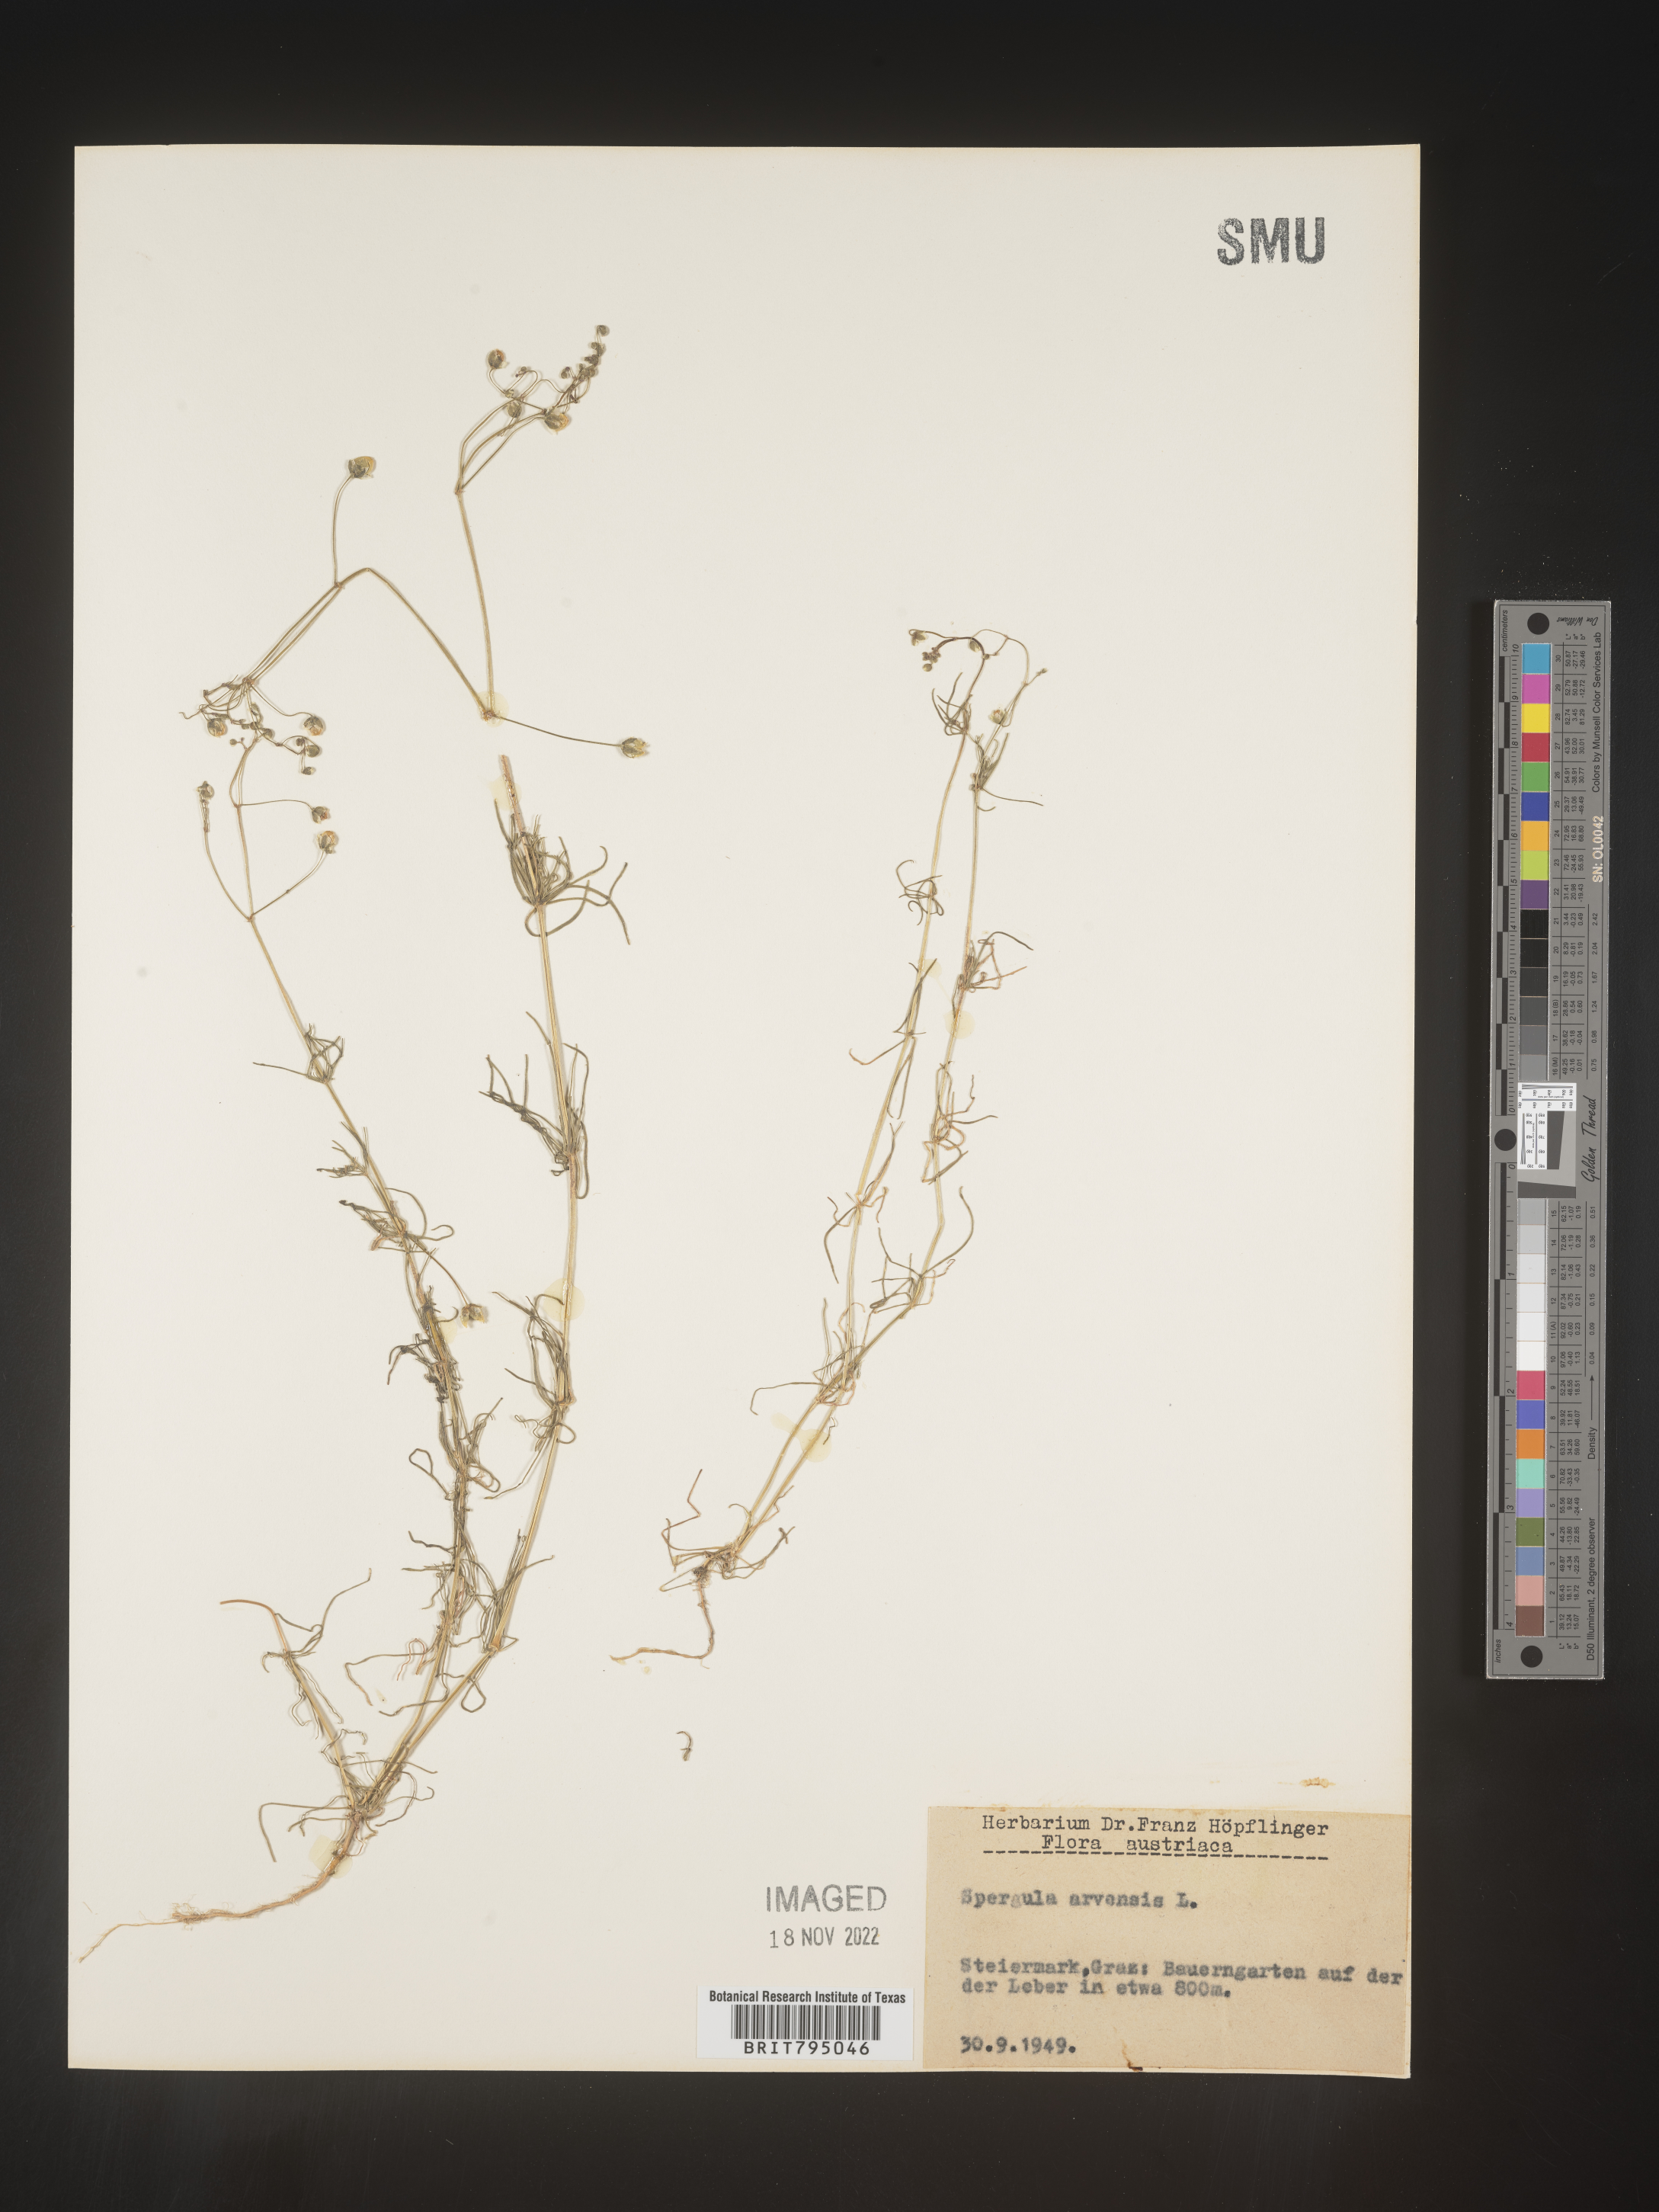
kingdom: Plantae
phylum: Tracheophyta
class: Magnoliopsida
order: Caryophyllales
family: Caryophyllaceae
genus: Spergula
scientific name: Spergula arvensis
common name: Corn spurrey
